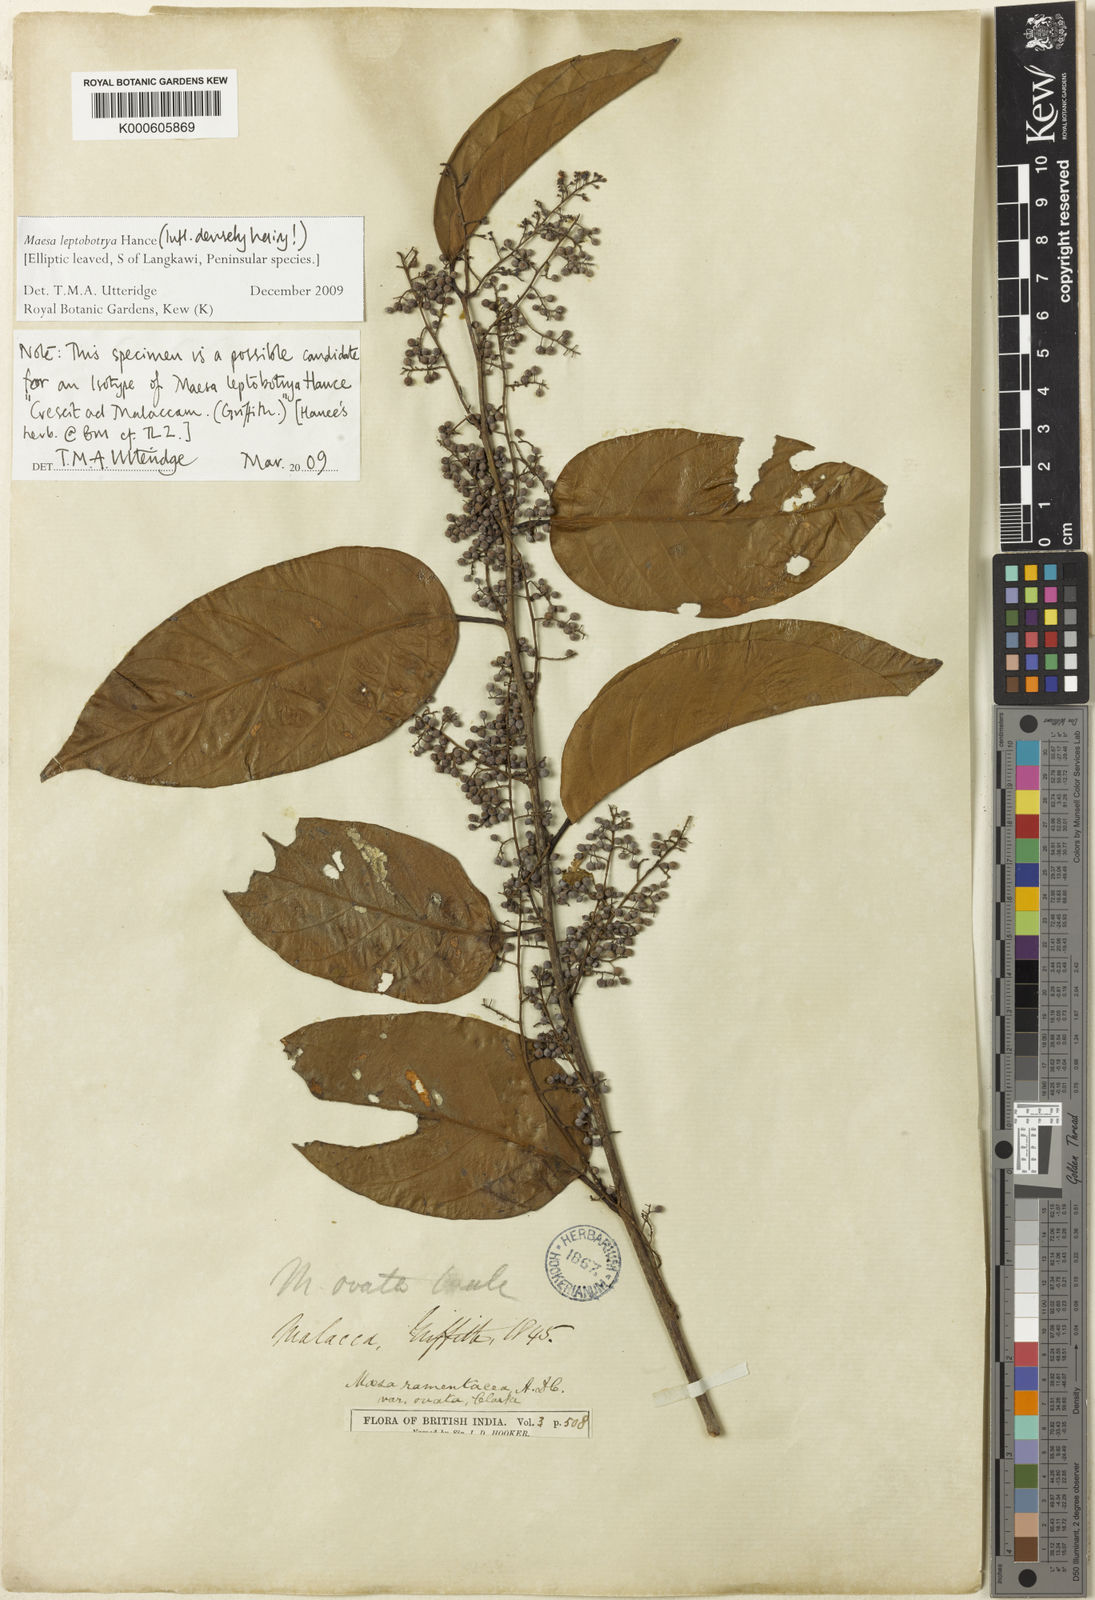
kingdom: Plantae
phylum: Tracheophyta
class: Magnoliopsida
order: Ericales
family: Primulaceae
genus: Maesa
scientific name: Maesa leptobotrya
